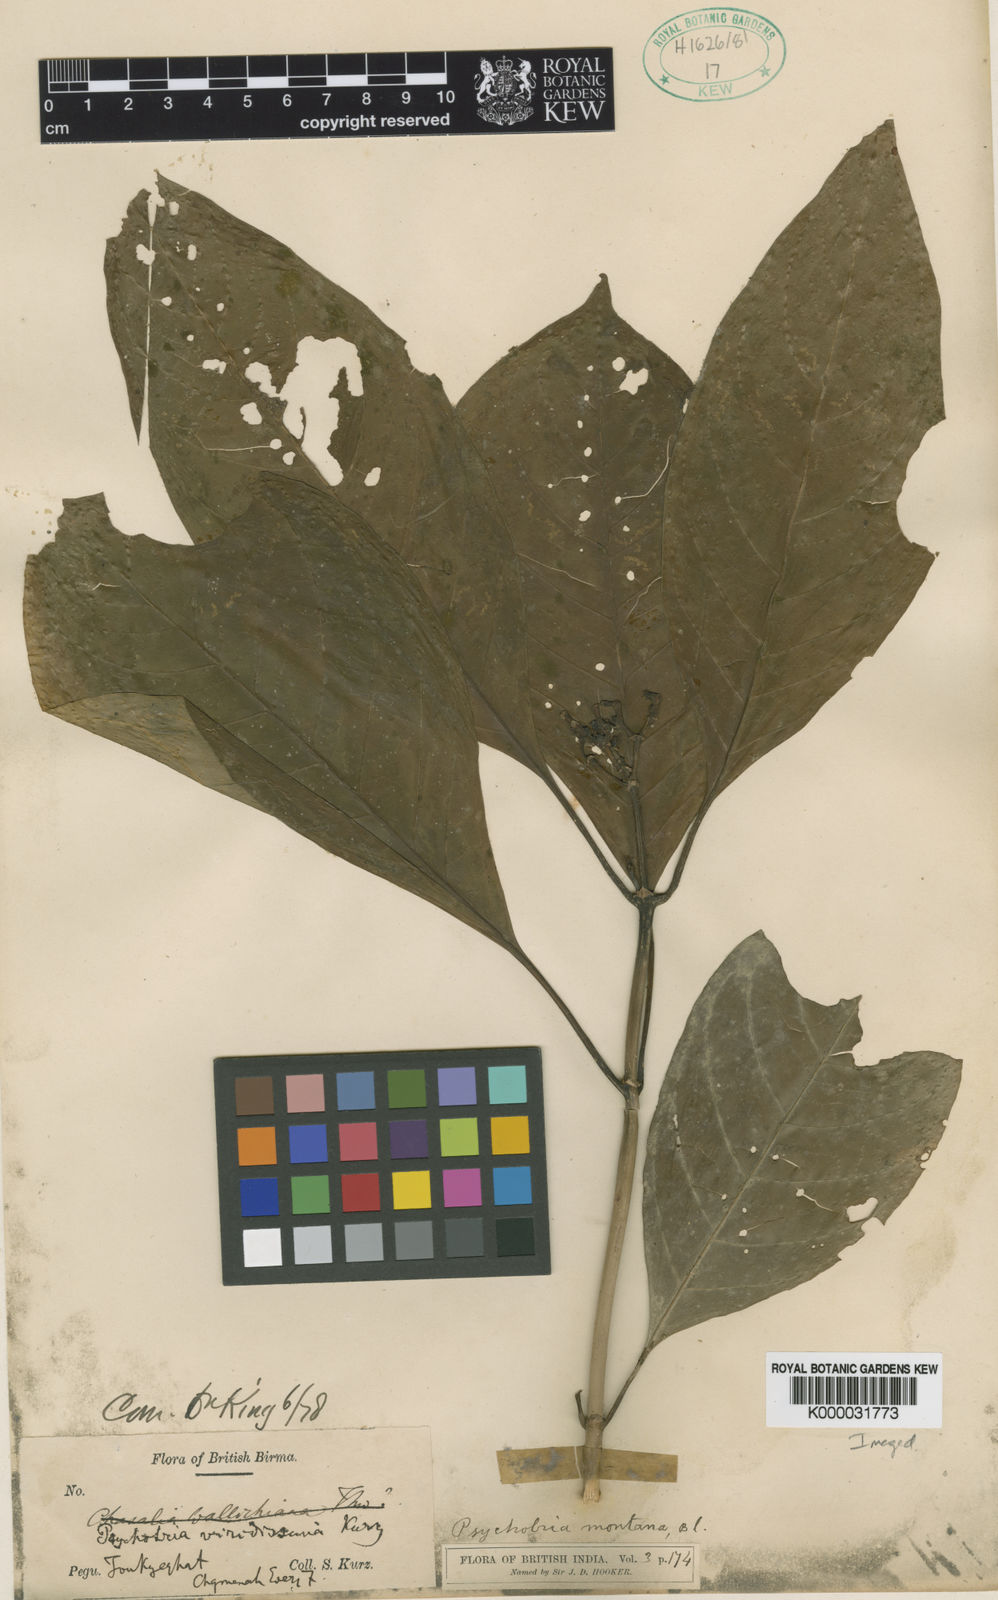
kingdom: Plantae
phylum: Tracheophyta
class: Magnoliopsida
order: Gentianales
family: Rubiaceae
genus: Eumachia
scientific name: Eumachia montana
